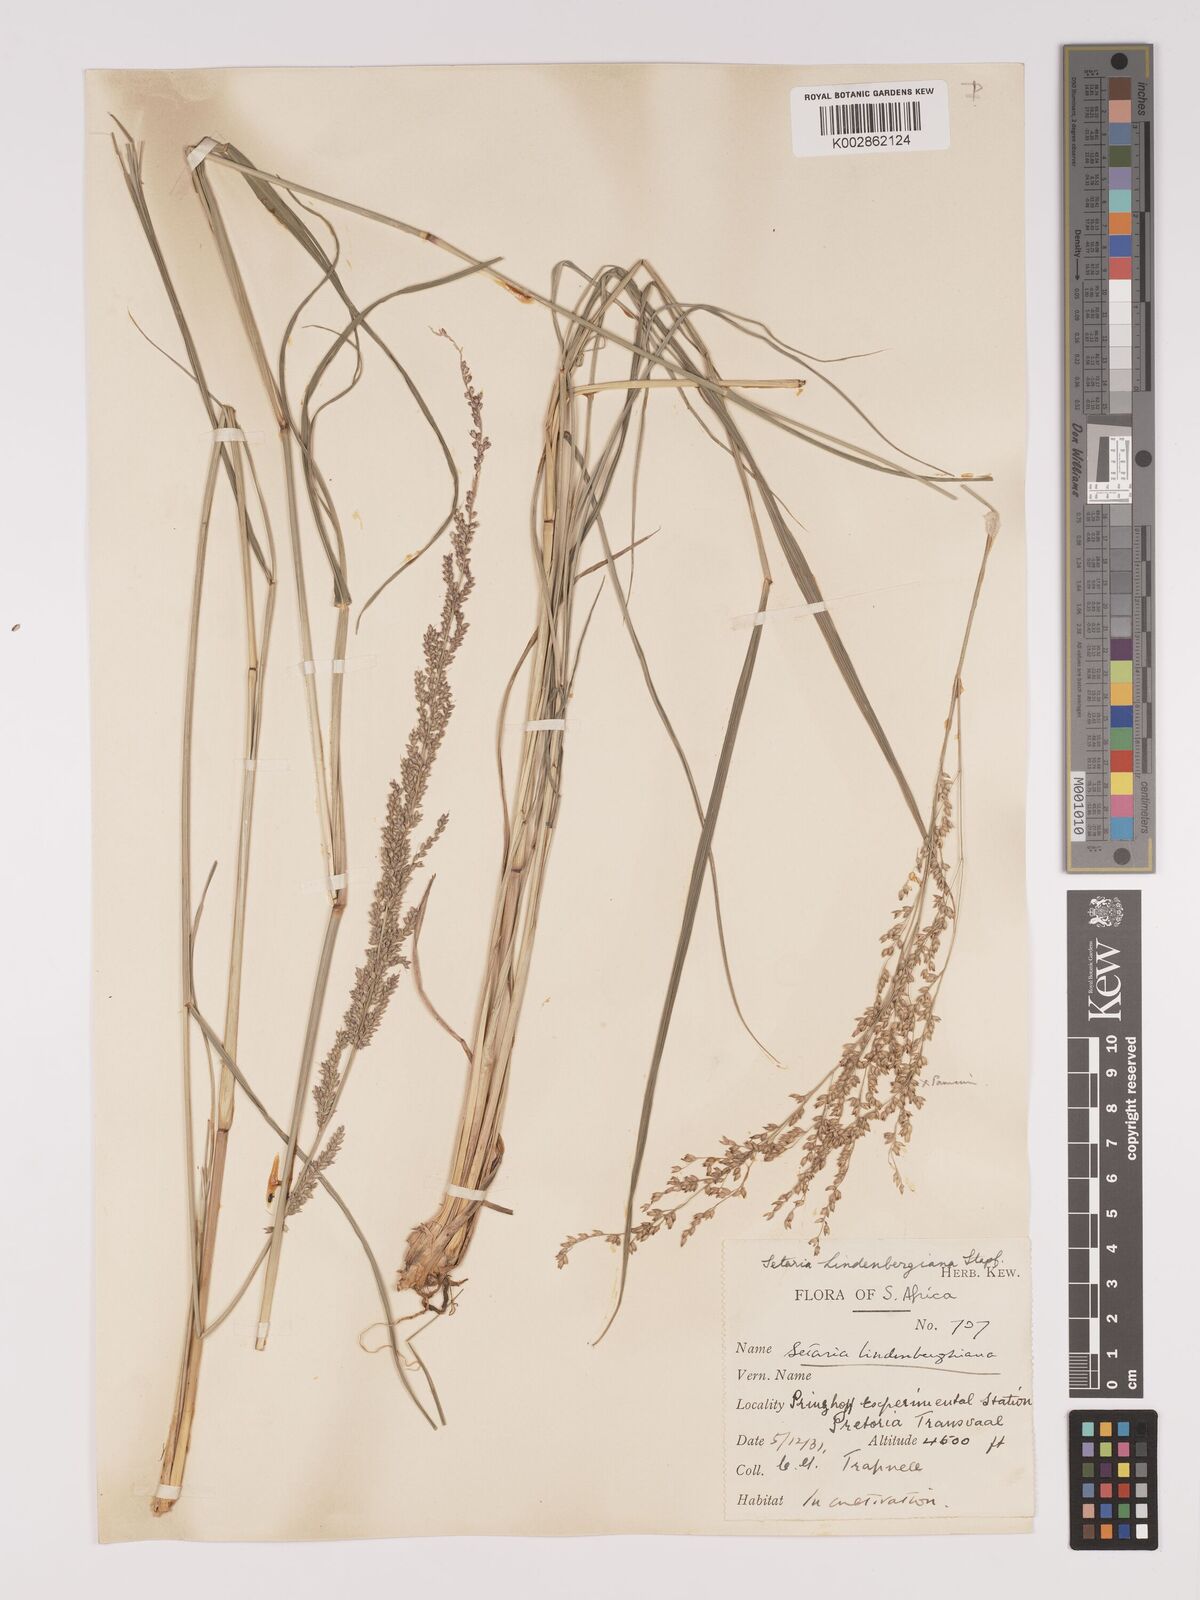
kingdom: Plantae
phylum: Tracheophyta
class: Liliopsida
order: Poales
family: Poaceae
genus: Setaria
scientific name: Setaria lindenbergiana
